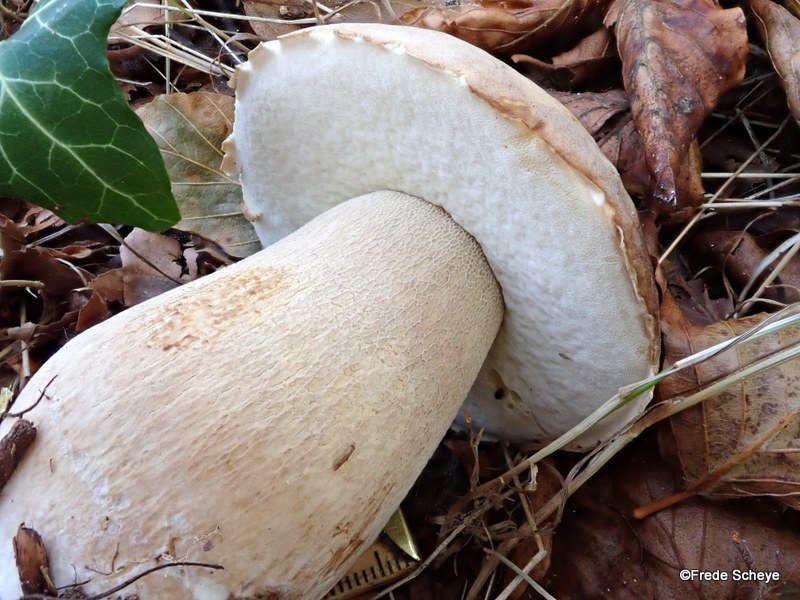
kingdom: Fungi
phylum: Basidiomycota
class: Agaricomycetes
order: Boletales
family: Boletaceae
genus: Boletus
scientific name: Boletus edulis
